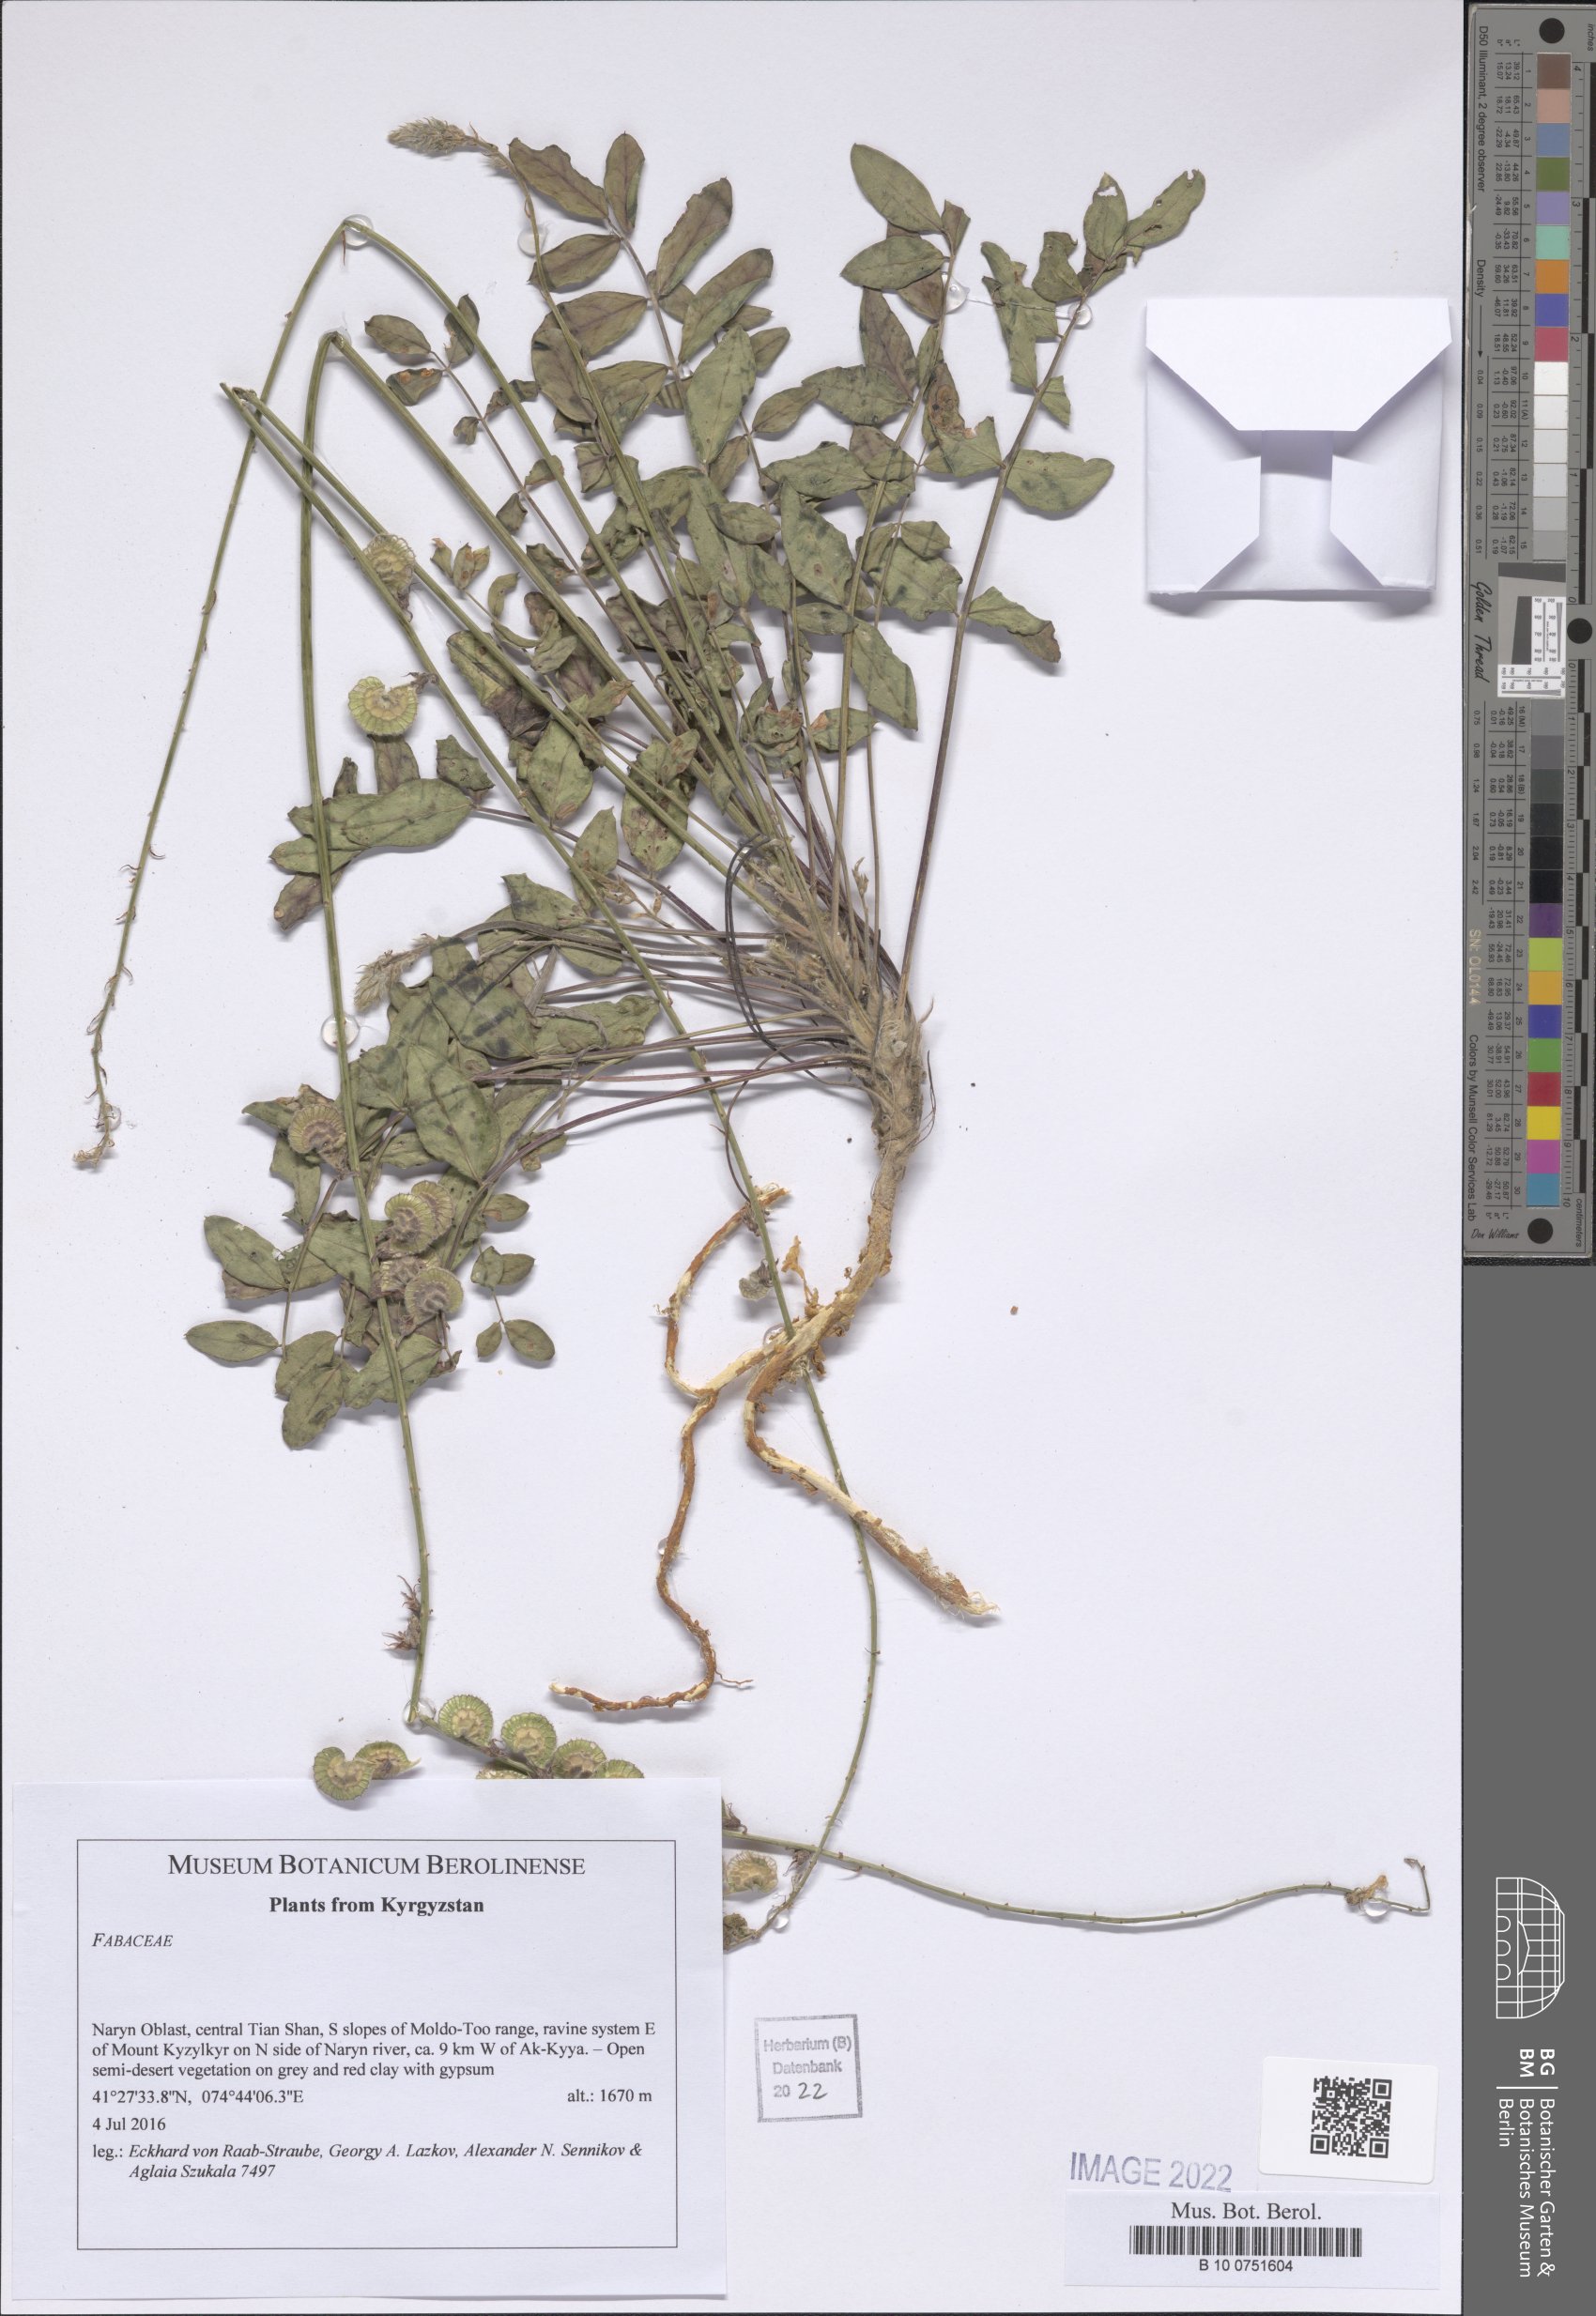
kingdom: Plantae
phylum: Tracheophyta
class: Magnoliopsida
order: Fabales
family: Fabaceae
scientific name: Fabaceae
